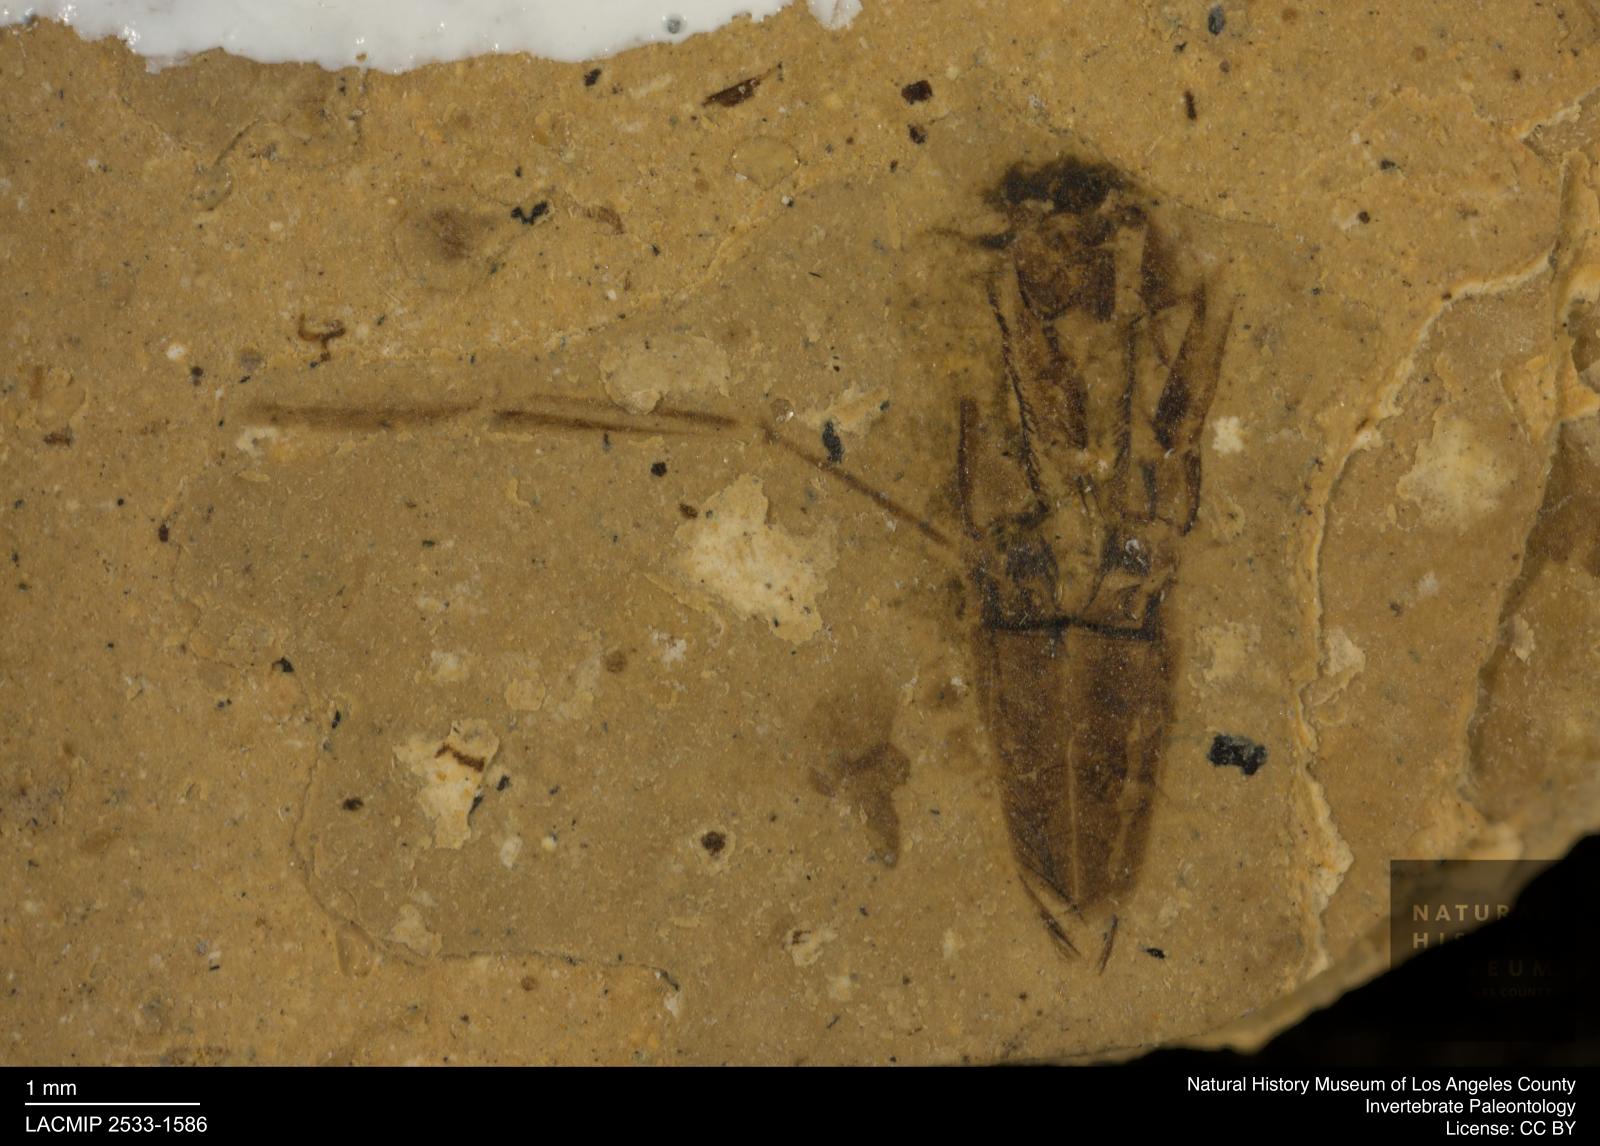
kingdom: Animalia
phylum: Arthropoda
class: Insecta
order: Hemiptera
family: Notonectidae
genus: Notonecta
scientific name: Notonecta
